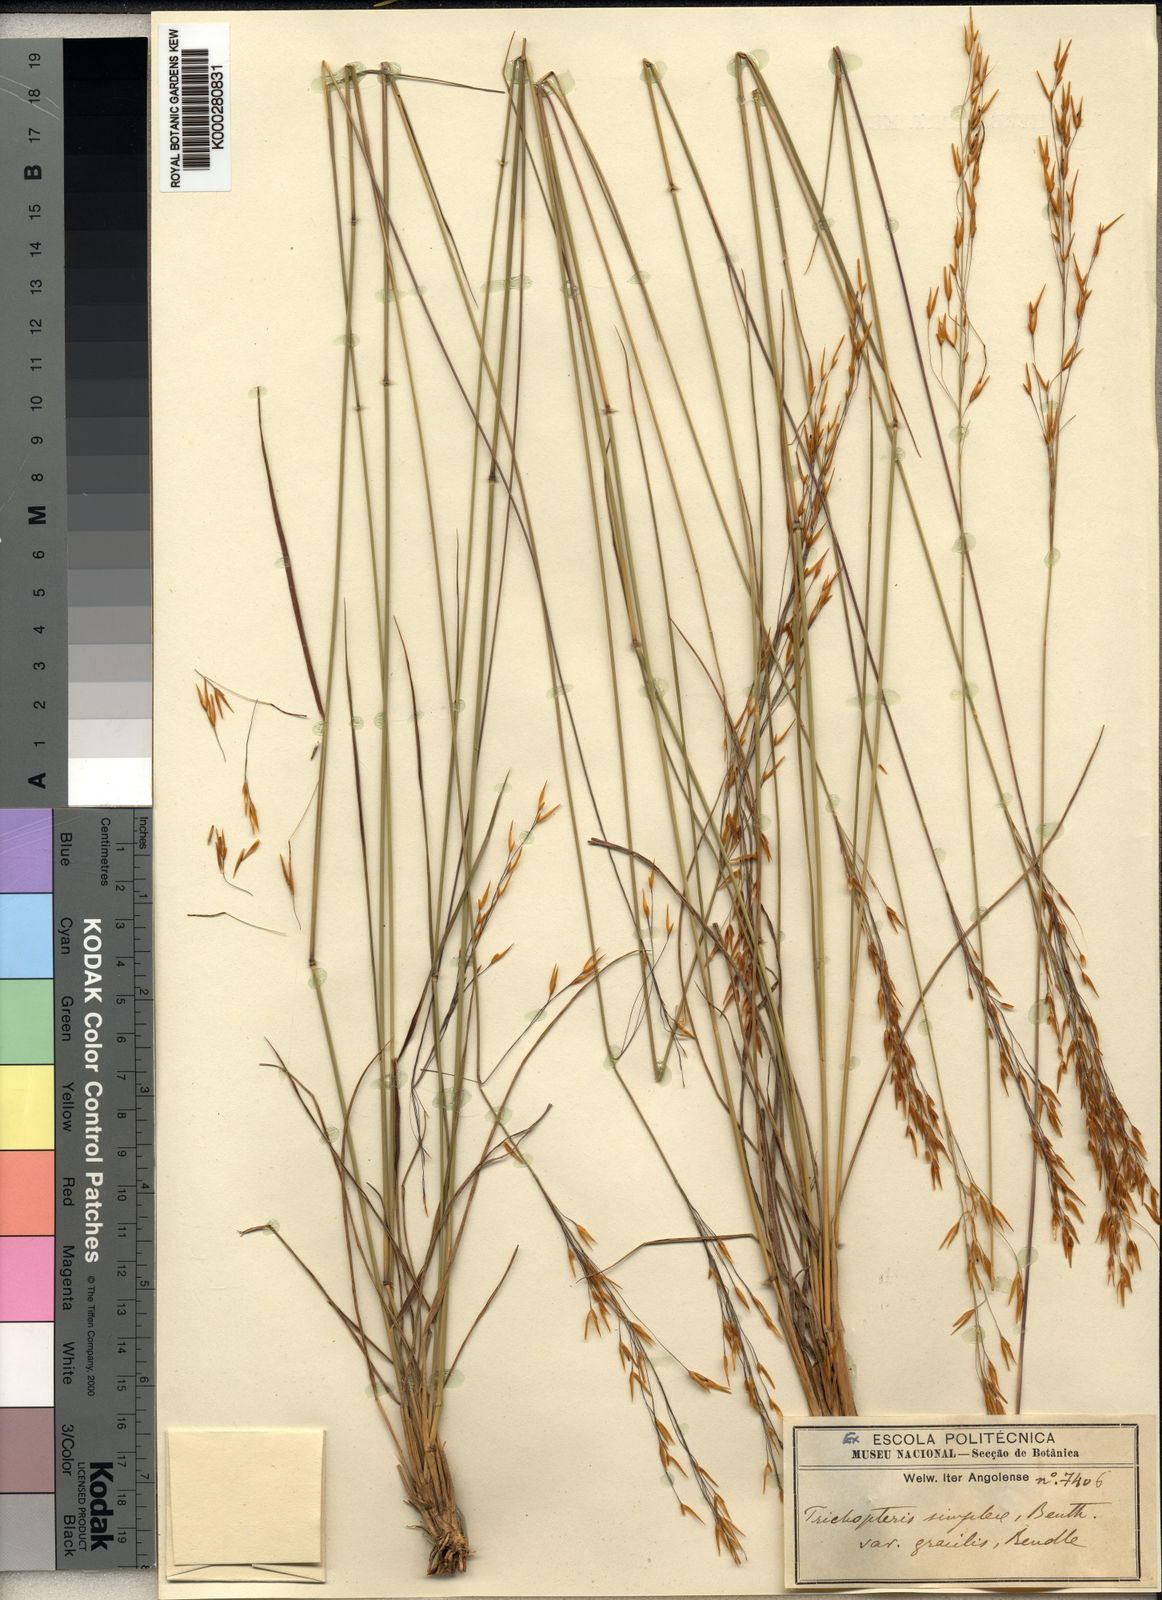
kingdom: Plantae
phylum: Tracheophyta
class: Liliopsida
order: Poales
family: Poaceae
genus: Loudetia
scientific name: Loudetia simplex
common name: Common russet grass
